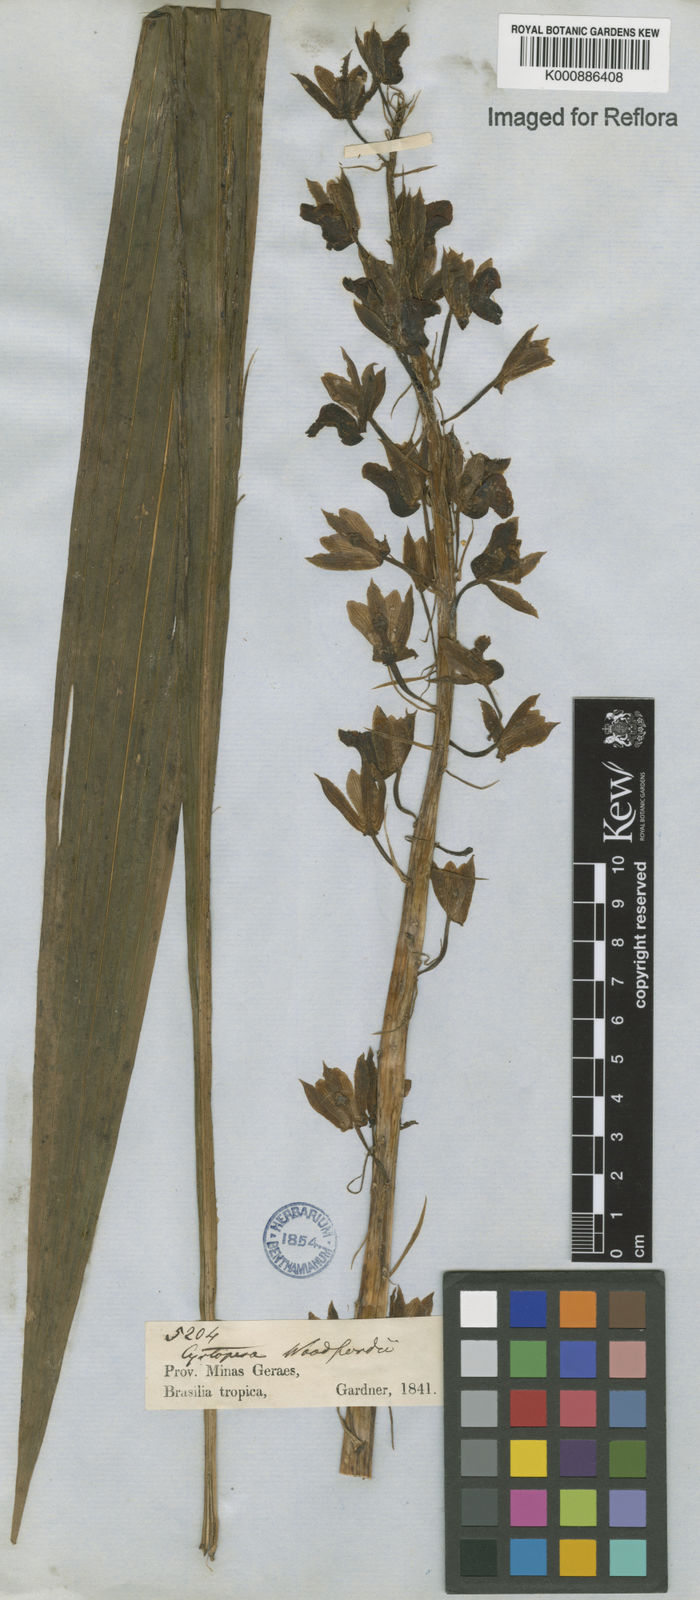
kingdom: Plantae
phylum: Tracheophyta
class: Liliopsida
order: Asparagales
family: Orchidaceae
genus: Eulophia
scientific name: Eulophia alta
